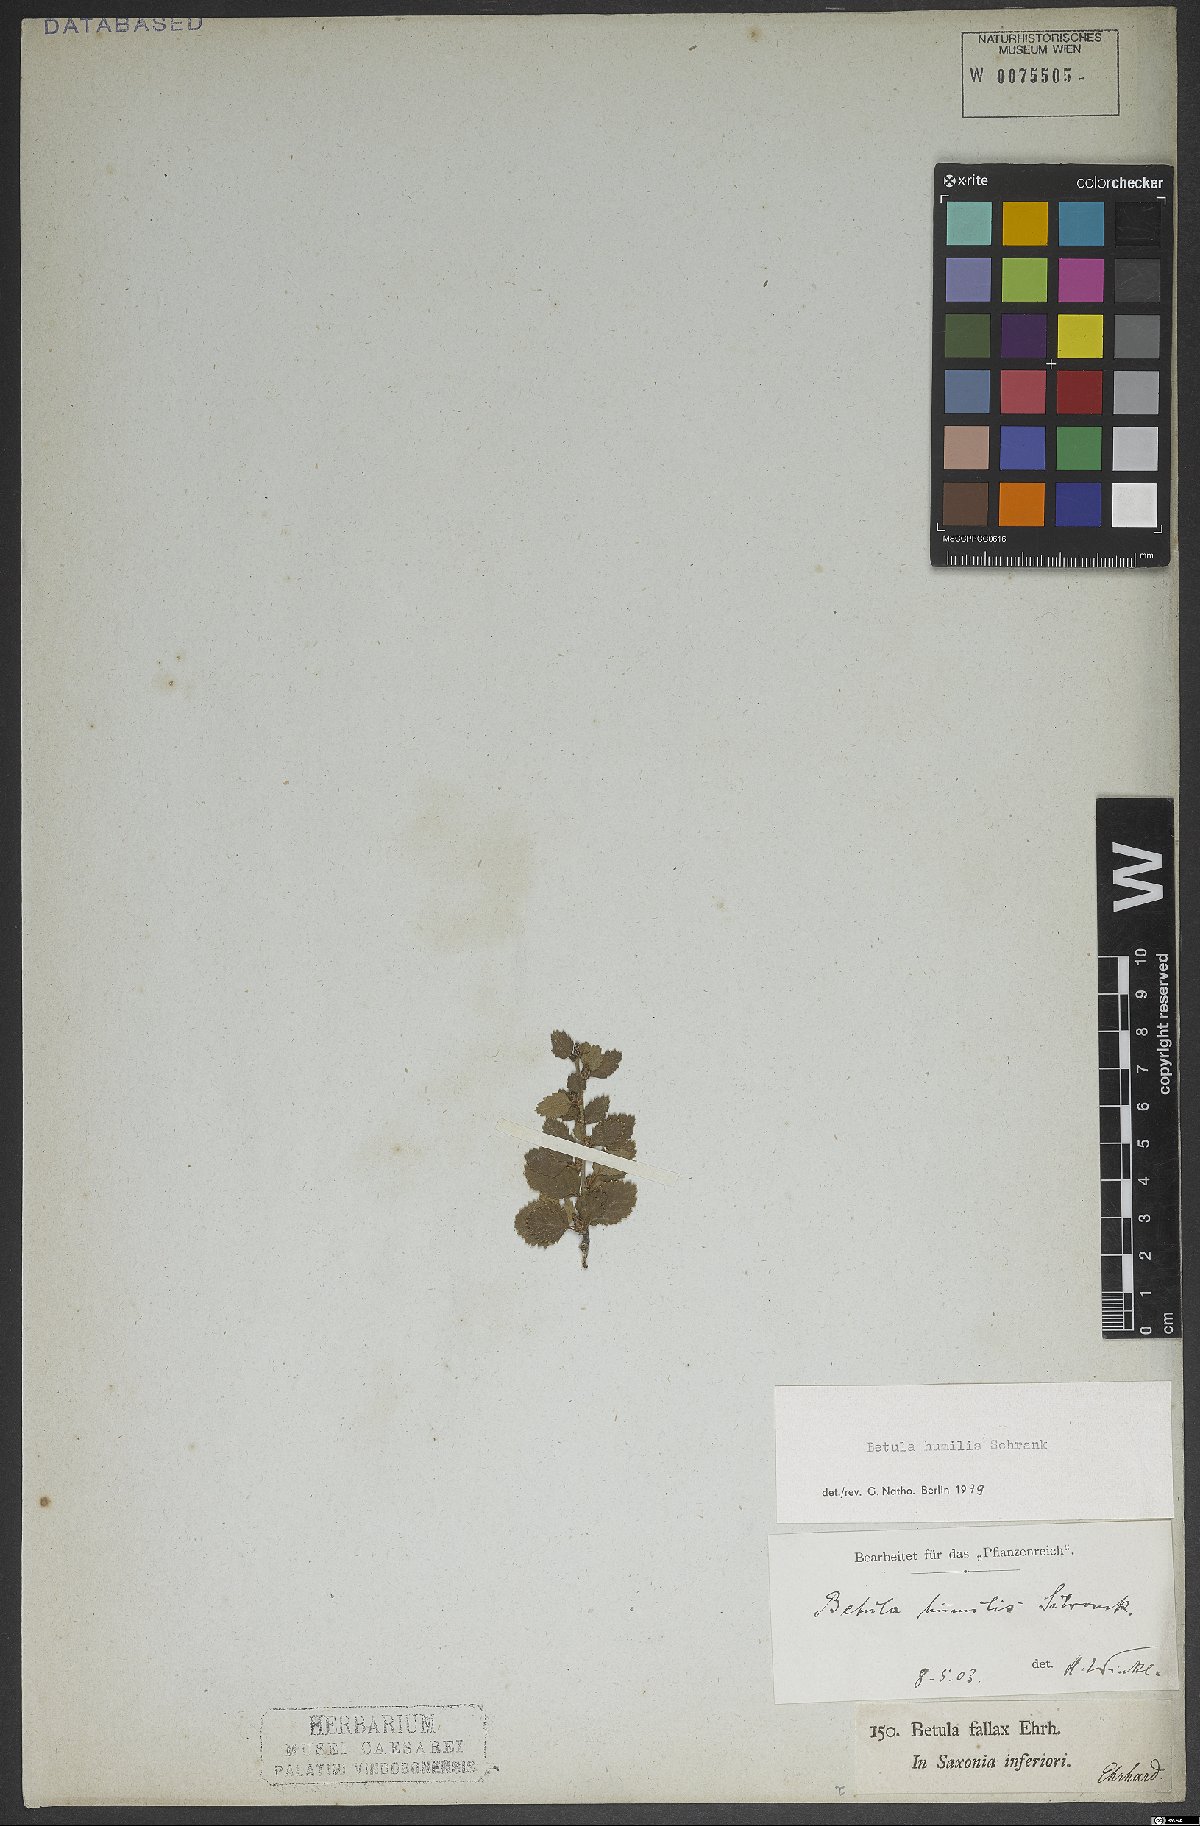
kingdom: Plantae
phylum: Tracheophyta
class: Magnoliopsida
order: Fagales
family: Betulaceae
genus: Betula
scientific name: Betula humilis
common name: Shrubby birch
